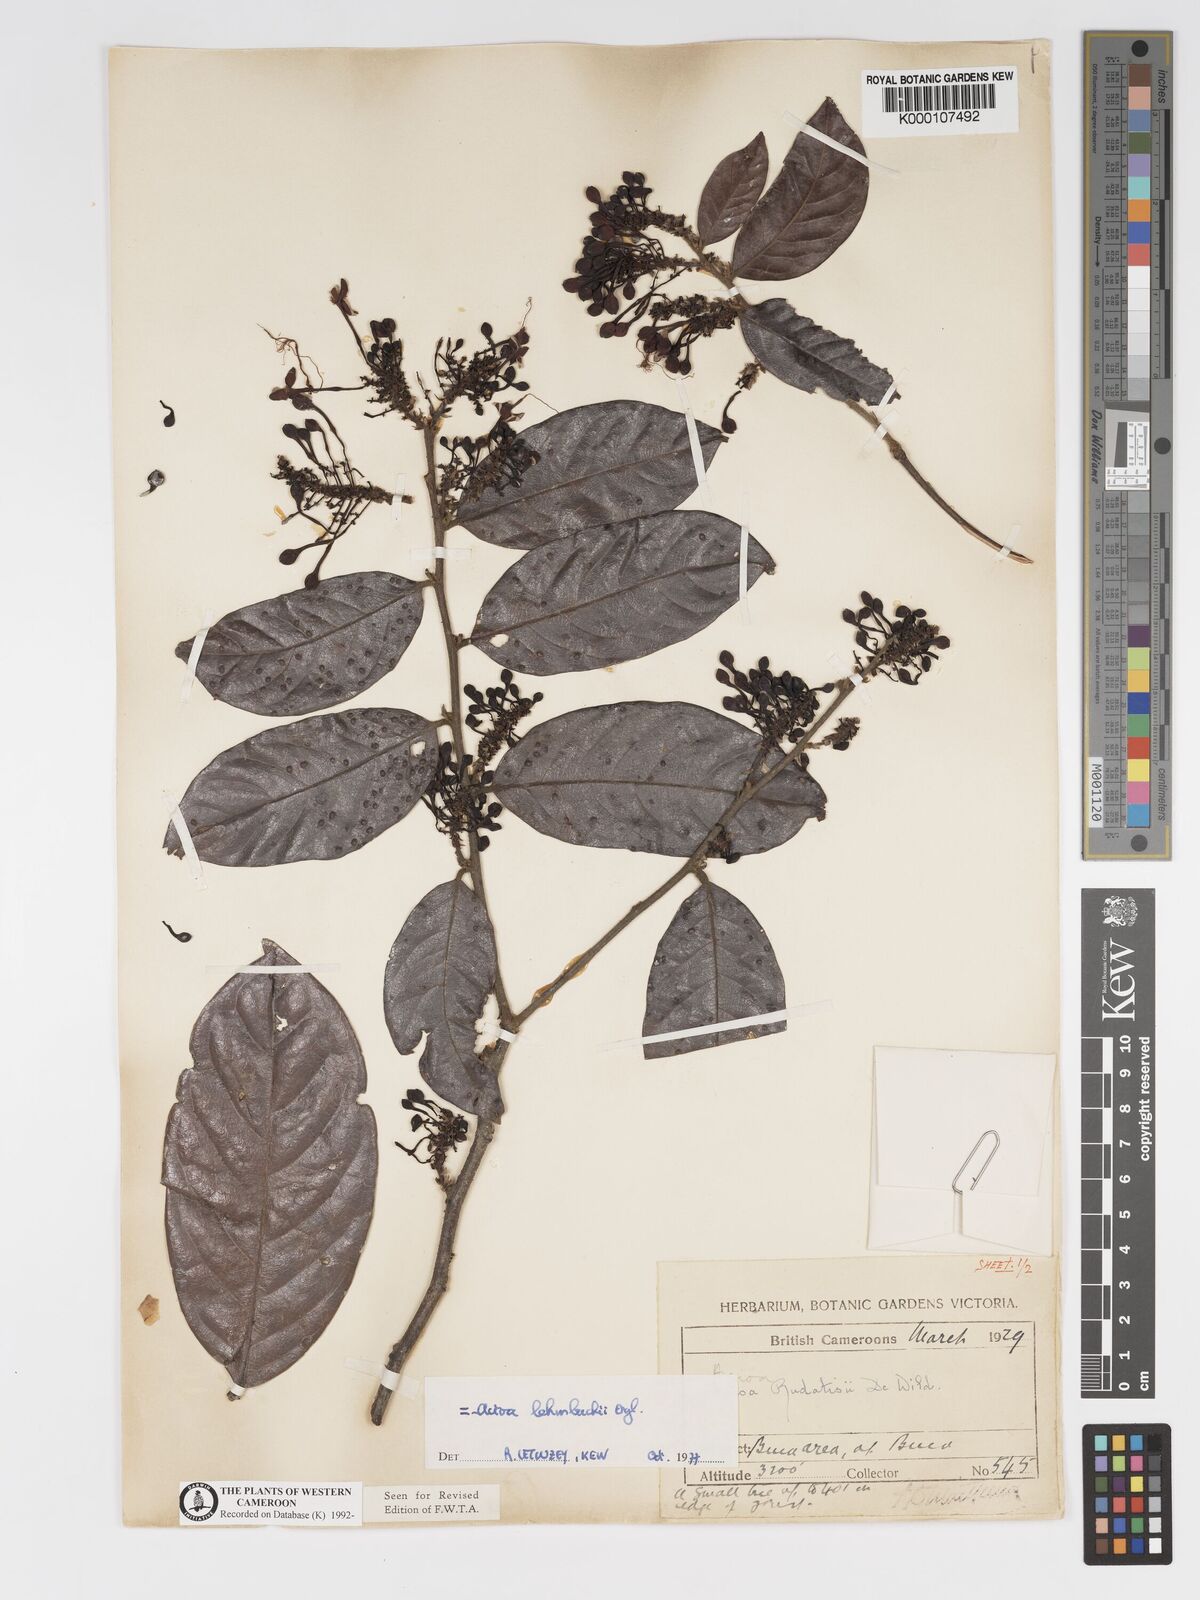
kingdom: Plantae
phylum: Tracheophyta
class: Magnoliopsida
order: Malpighiales
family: Chrysobalanaceae
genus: Dactyladenia
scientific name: Dactyladenia lehmbachii
